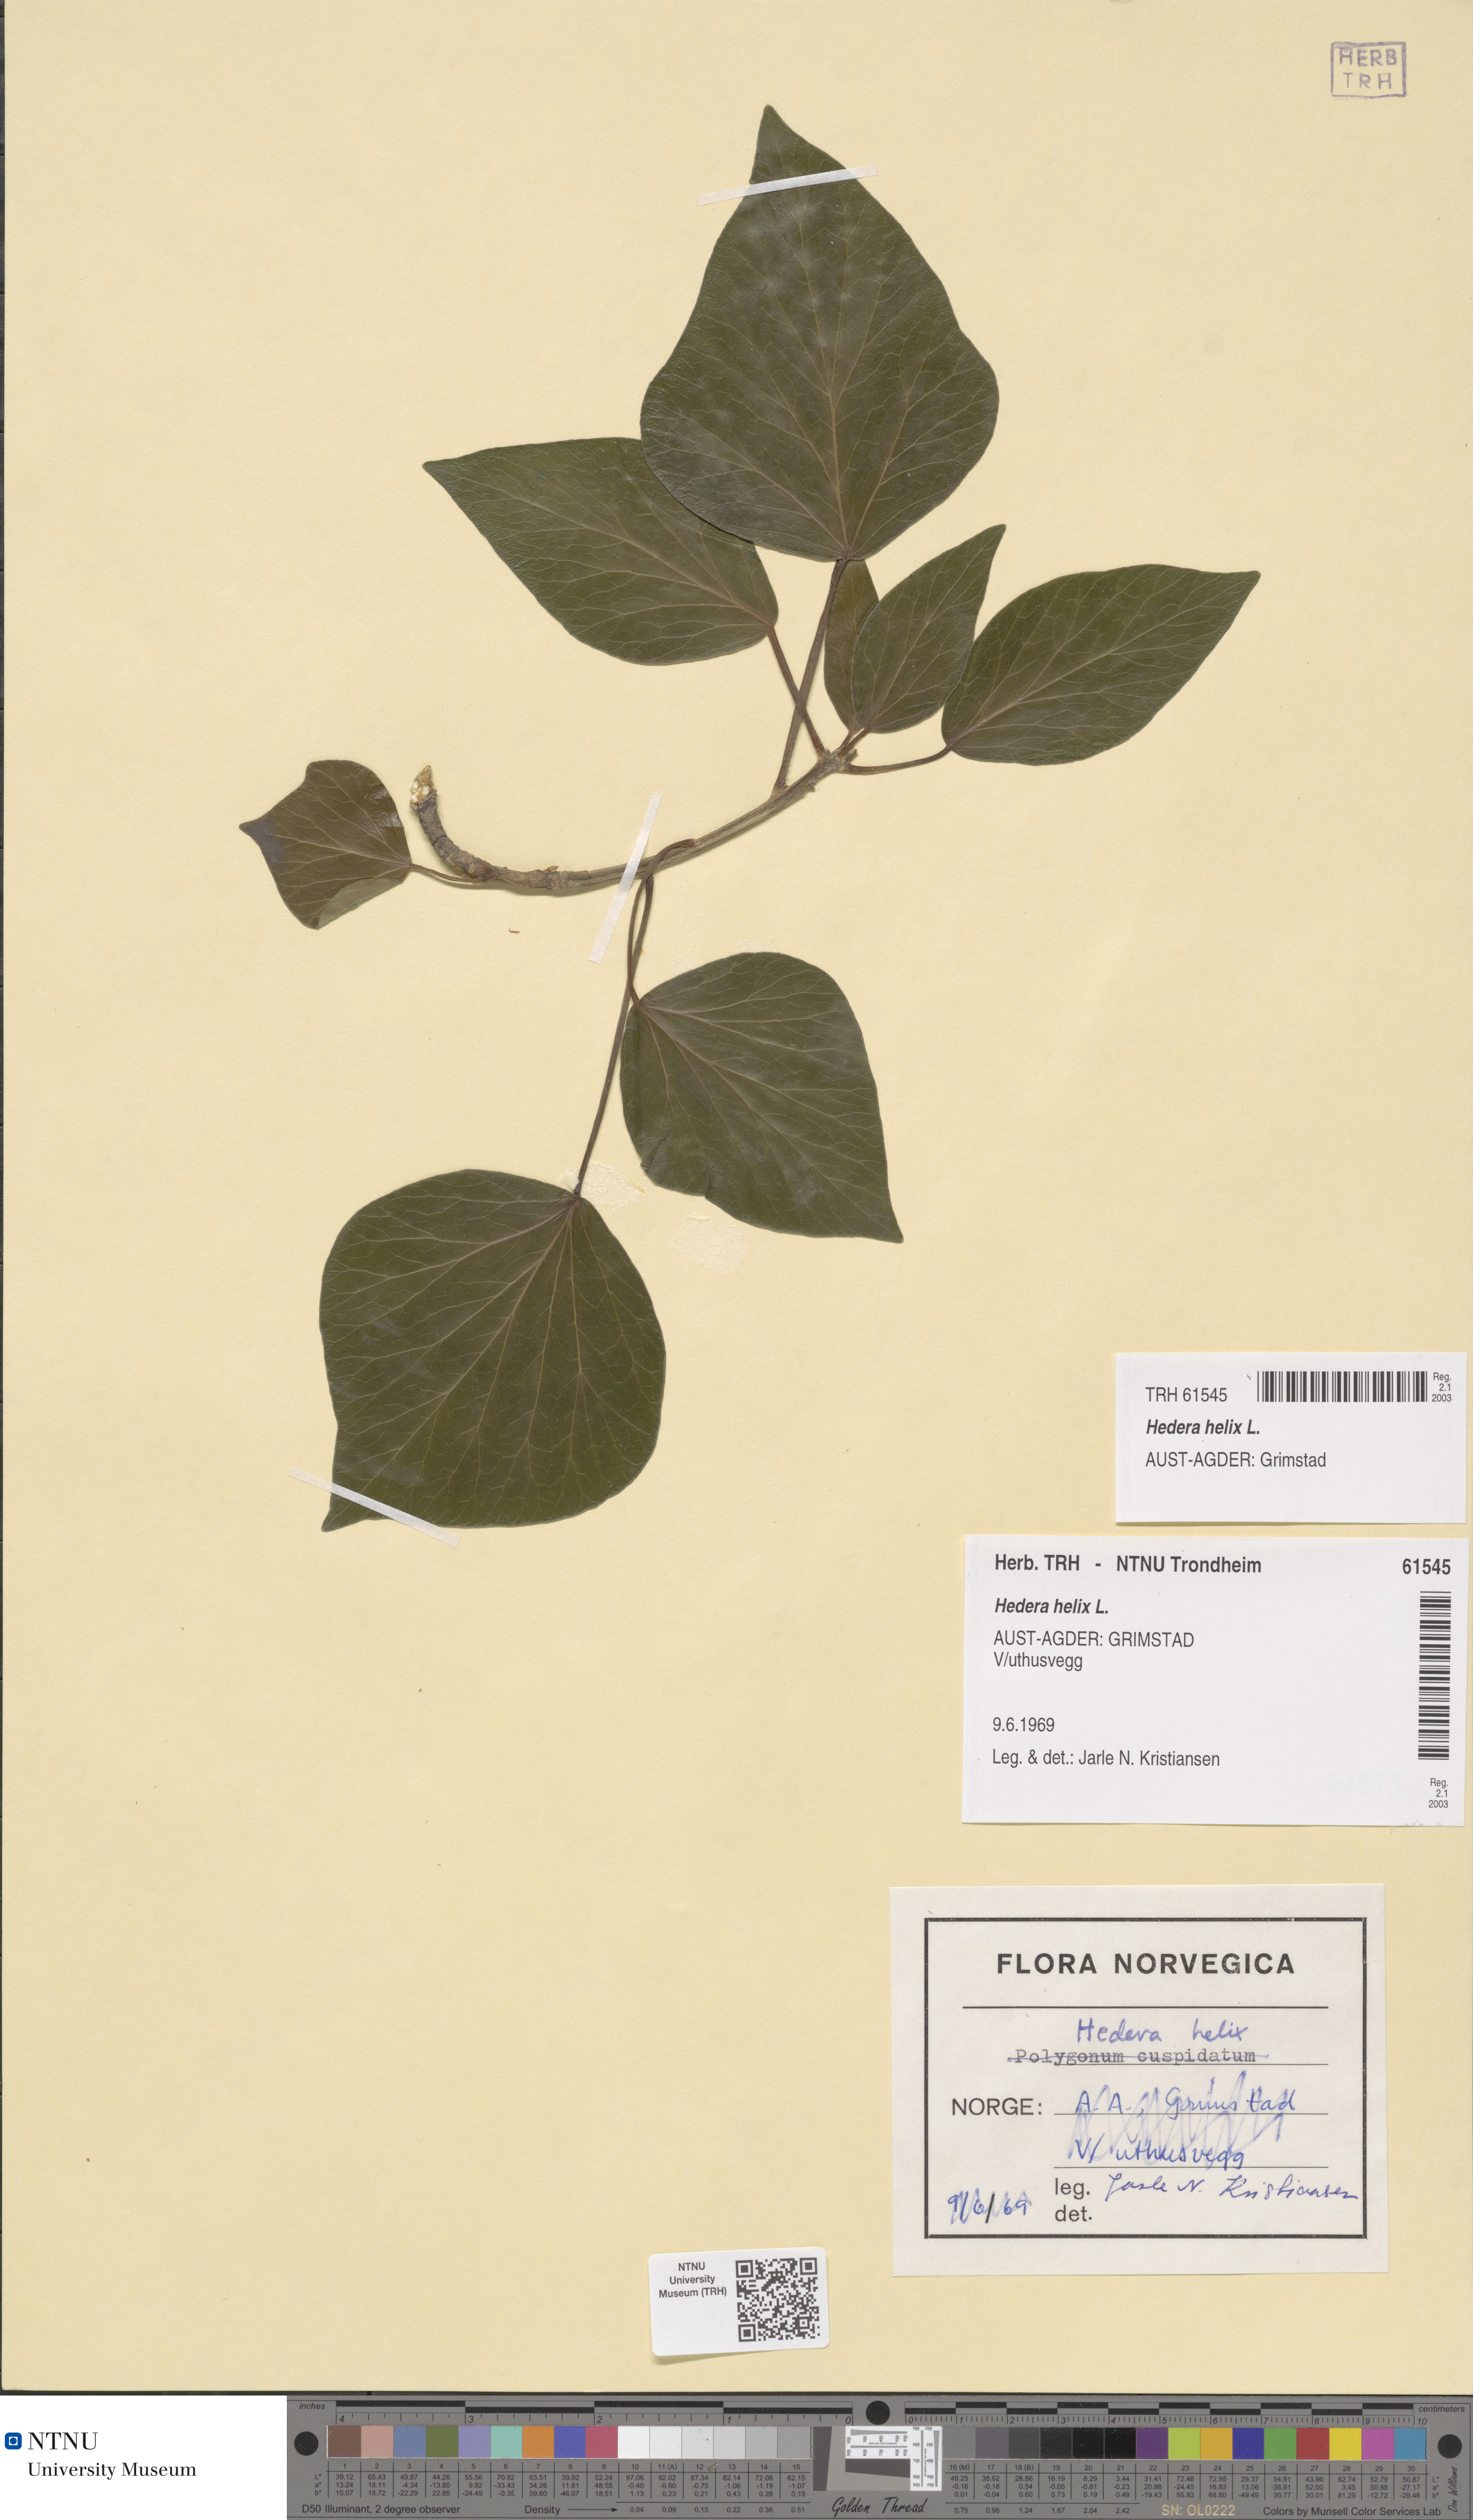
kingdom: Plantae
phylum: Tracheophyta
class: Magnoliopsida
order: Apiales
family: Araliaceae
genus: Hedera
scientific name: Hedera helix
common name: Ivy
